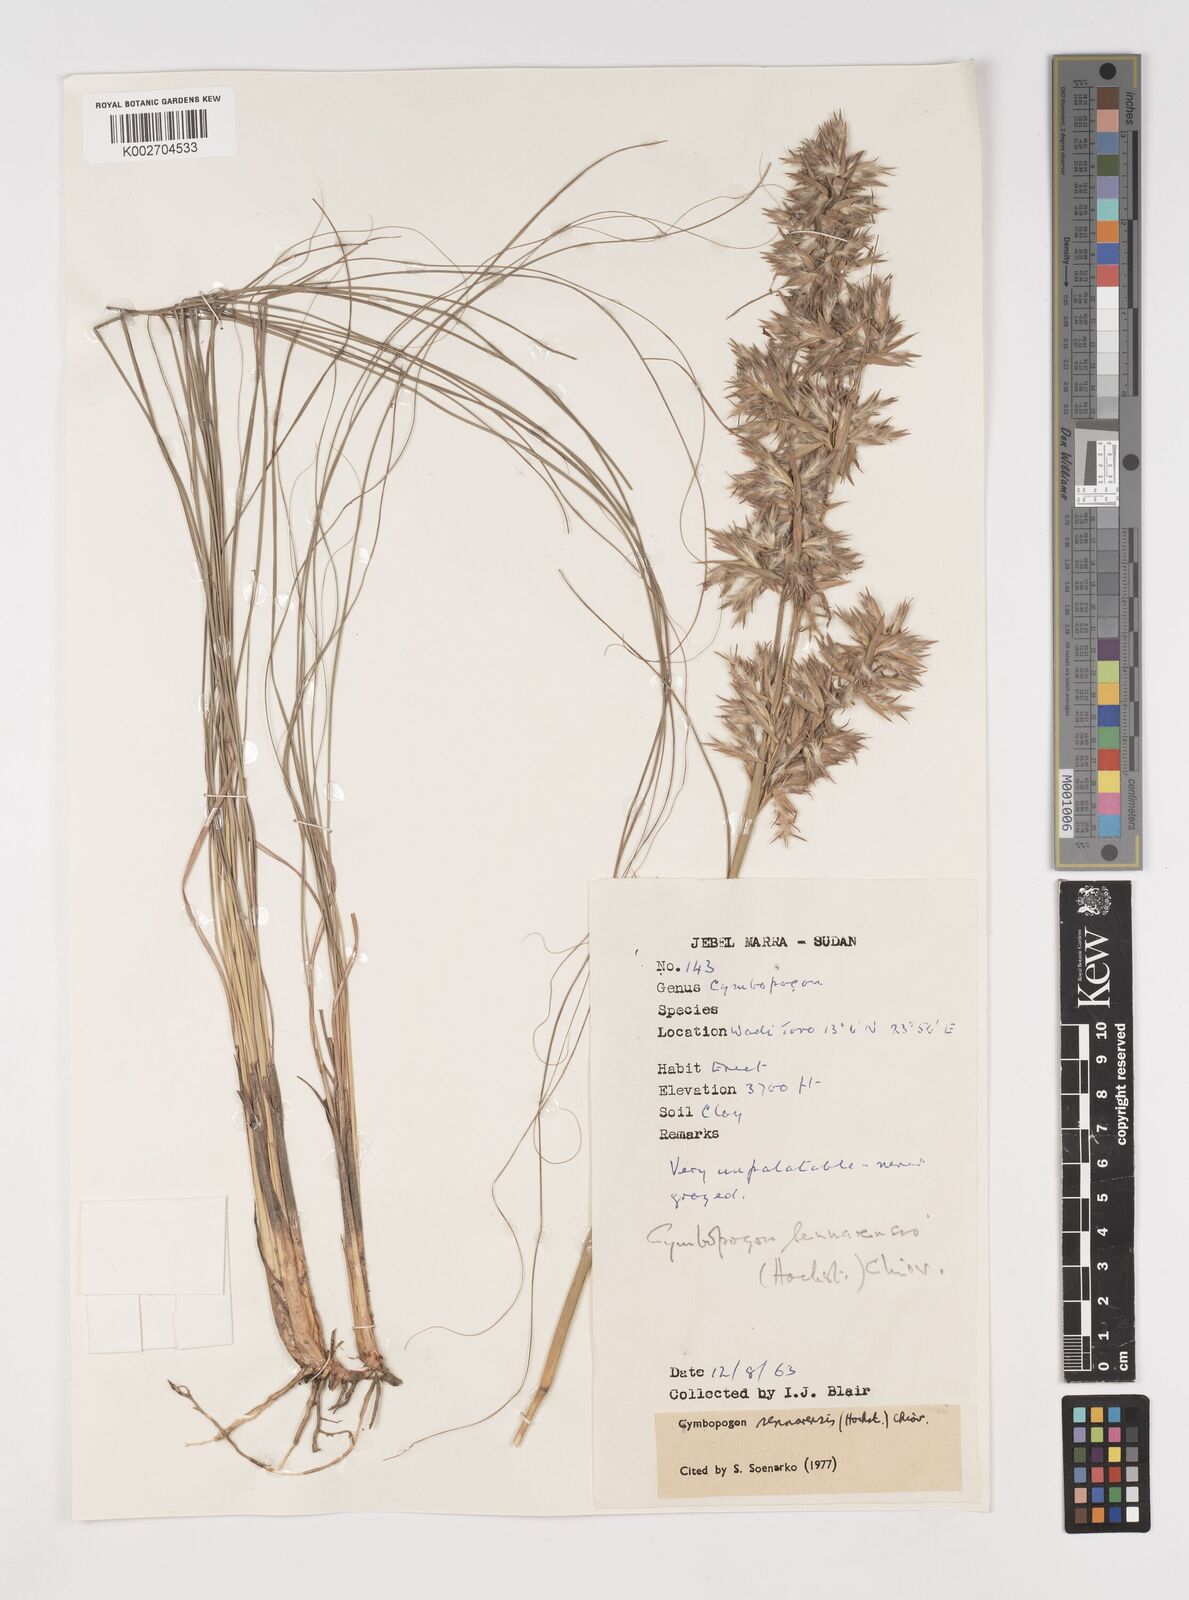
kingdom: Plantae
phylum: Tracheophyta
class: Liliopsida
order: Poales
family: Poaceae
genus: Cymbopogon
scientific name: Cymbopogon schoenanthus
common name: Geranium grass
